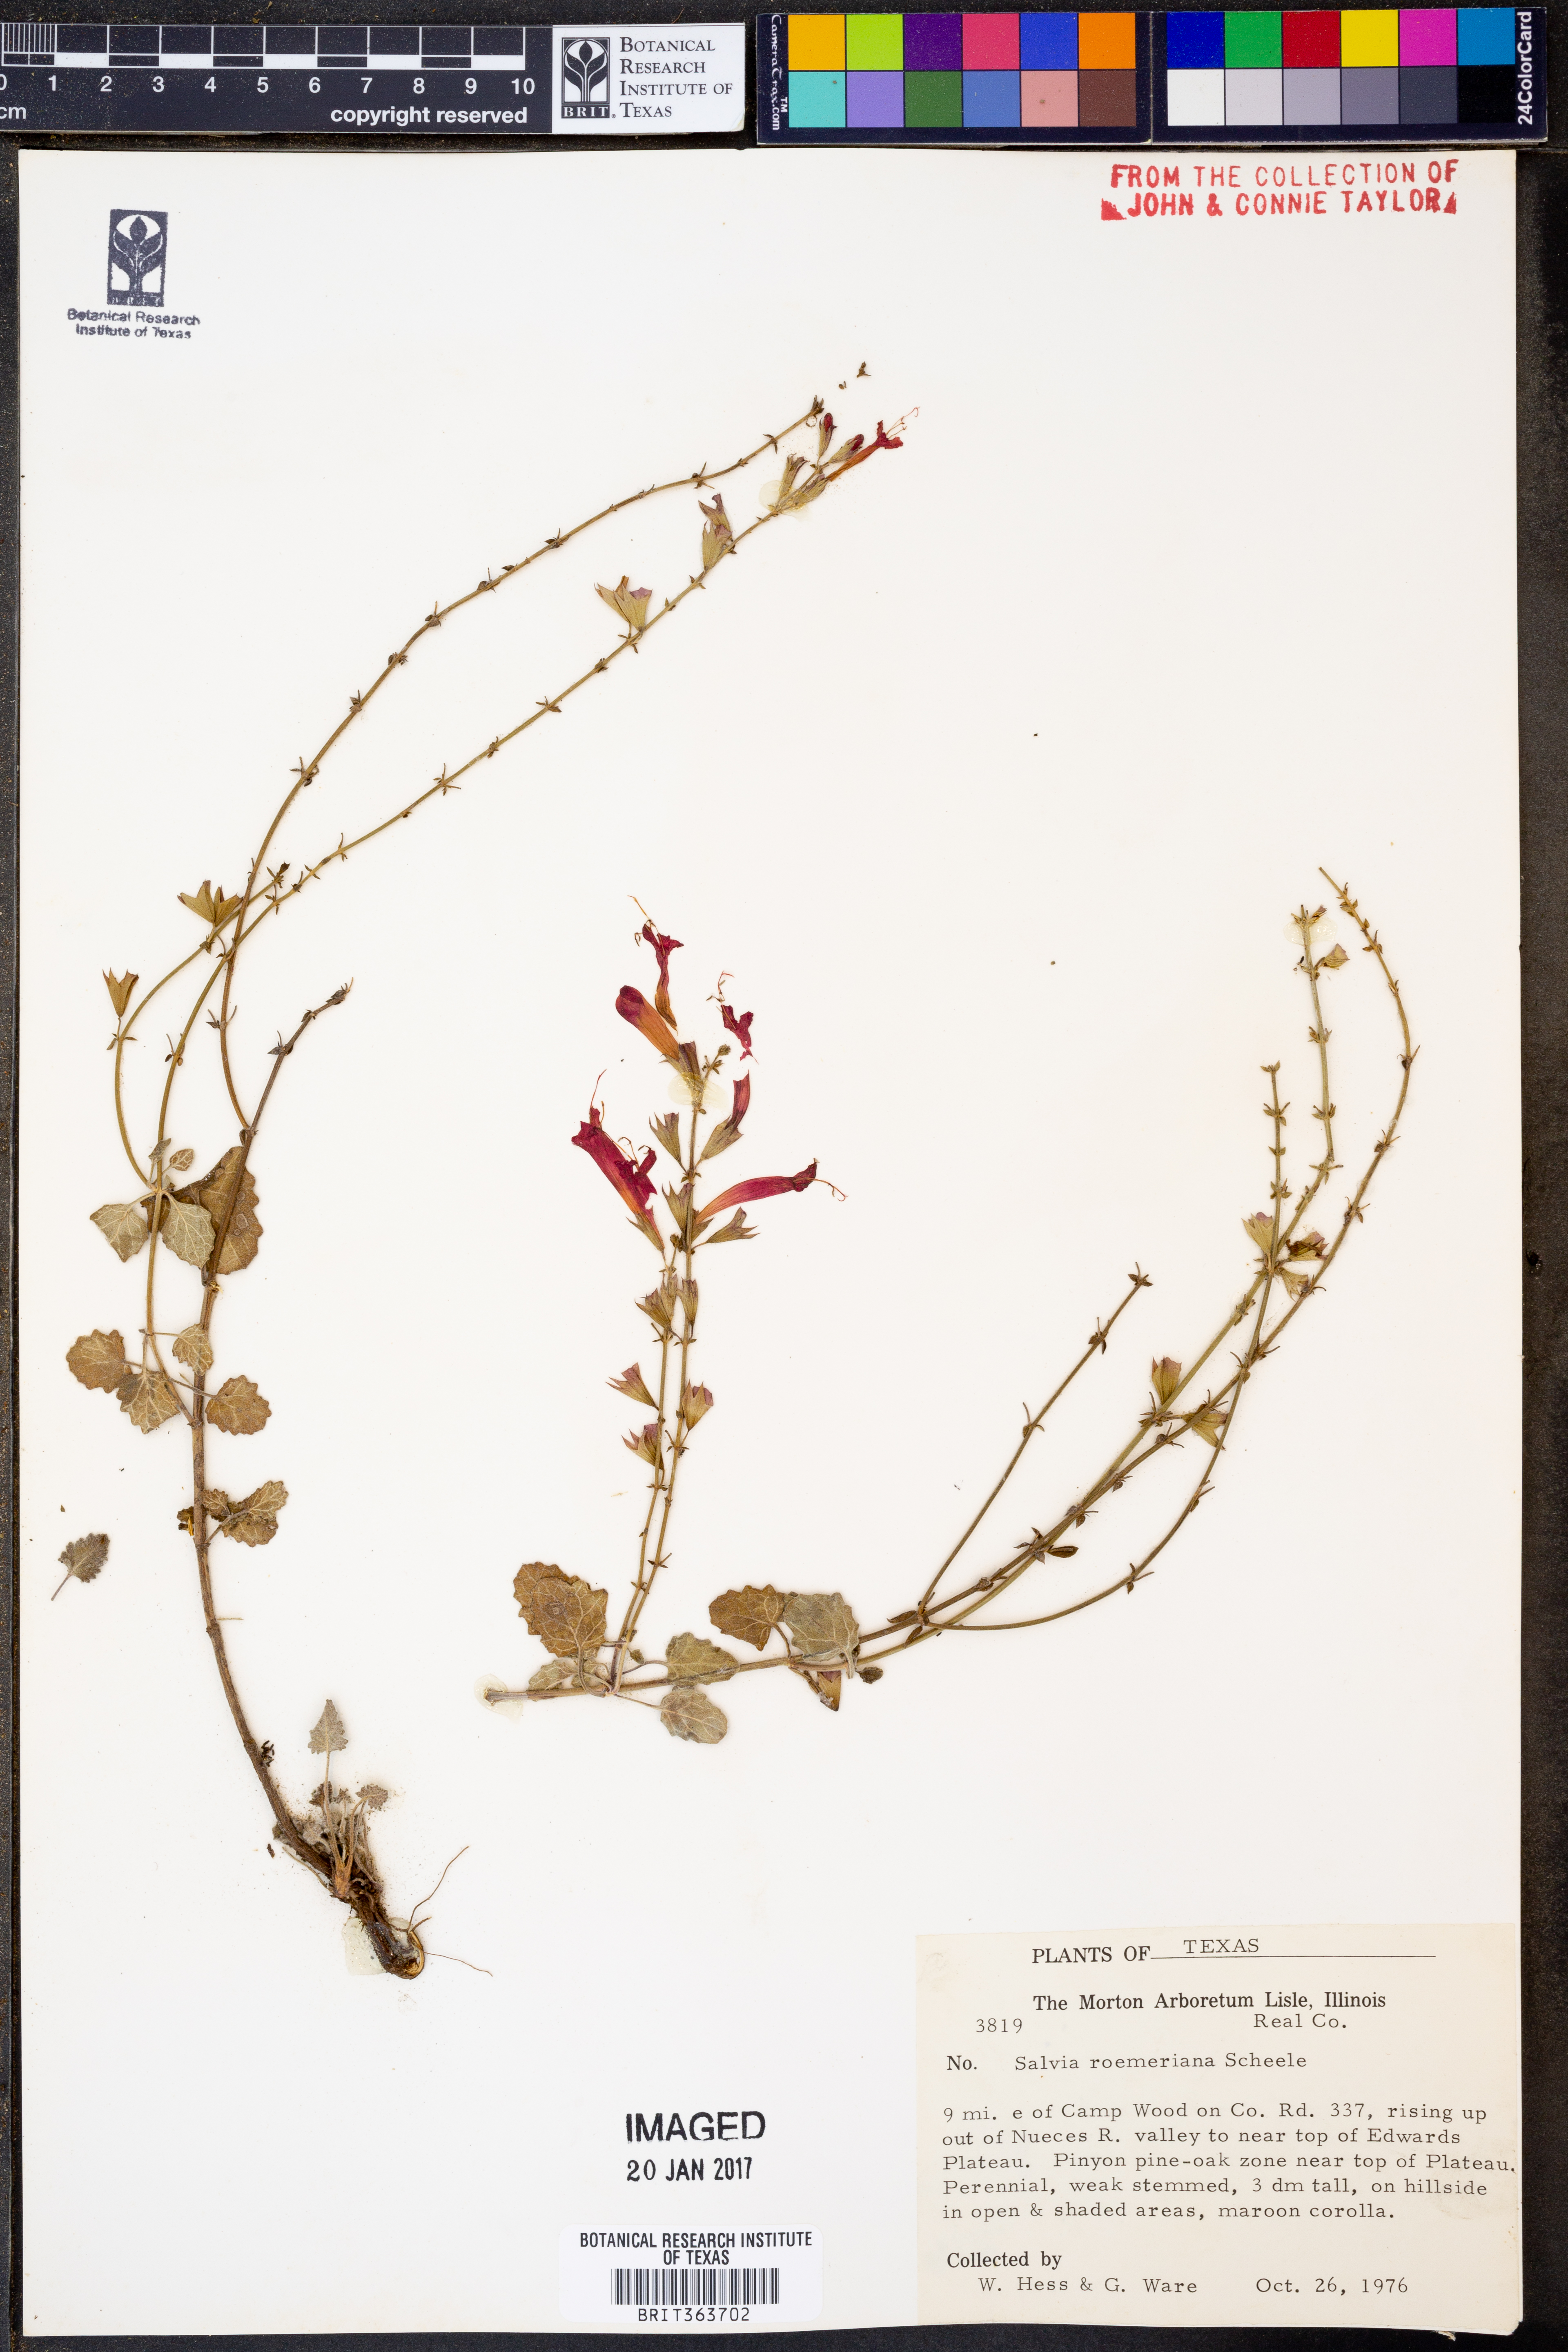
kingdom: Plantae
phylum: Tracheophyta
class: Magnoliopsida
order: Lamiales
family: Lamiaceae
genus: Salvia
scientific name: Salvia roemeriana
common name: Cedar sage
